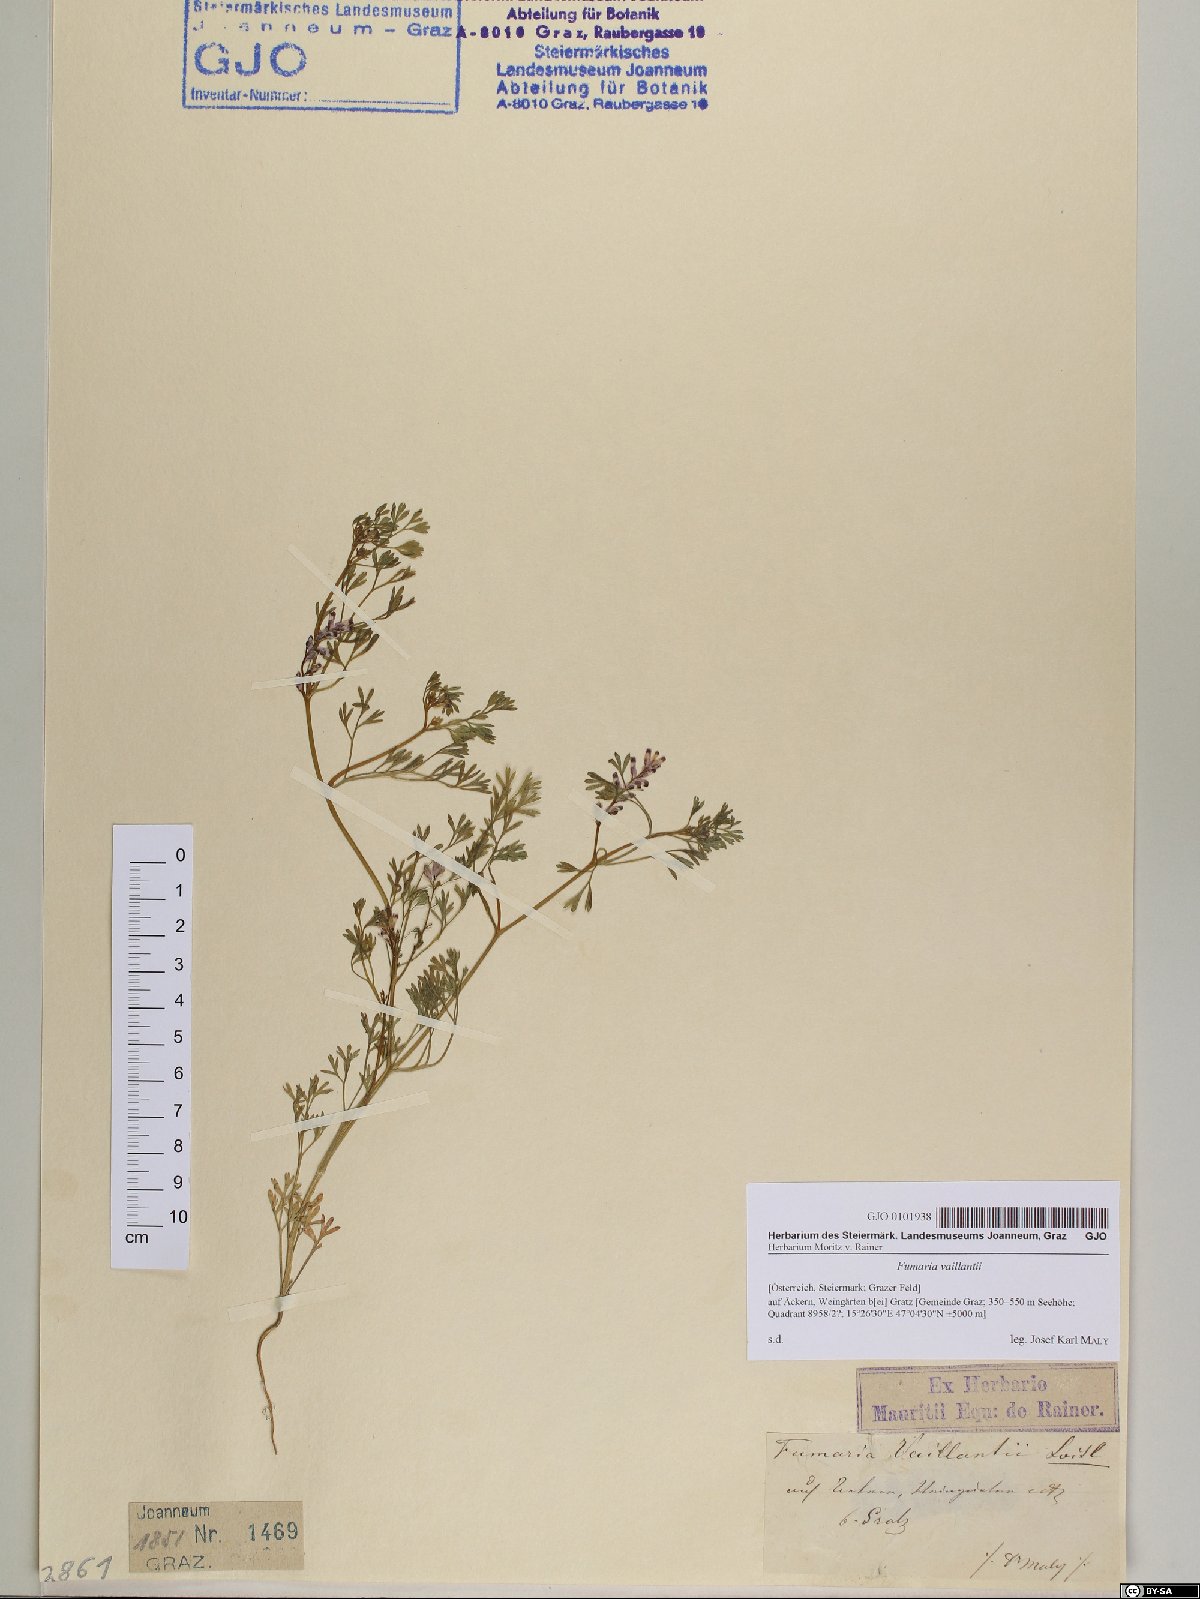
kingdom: Plantae
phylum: Tracheophyta
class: Magnoliopsida
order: Ranunculales
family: Papaveraceae
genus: Fumaria
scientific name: Fumaria vaillantii
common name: Few-flowered fumitory
